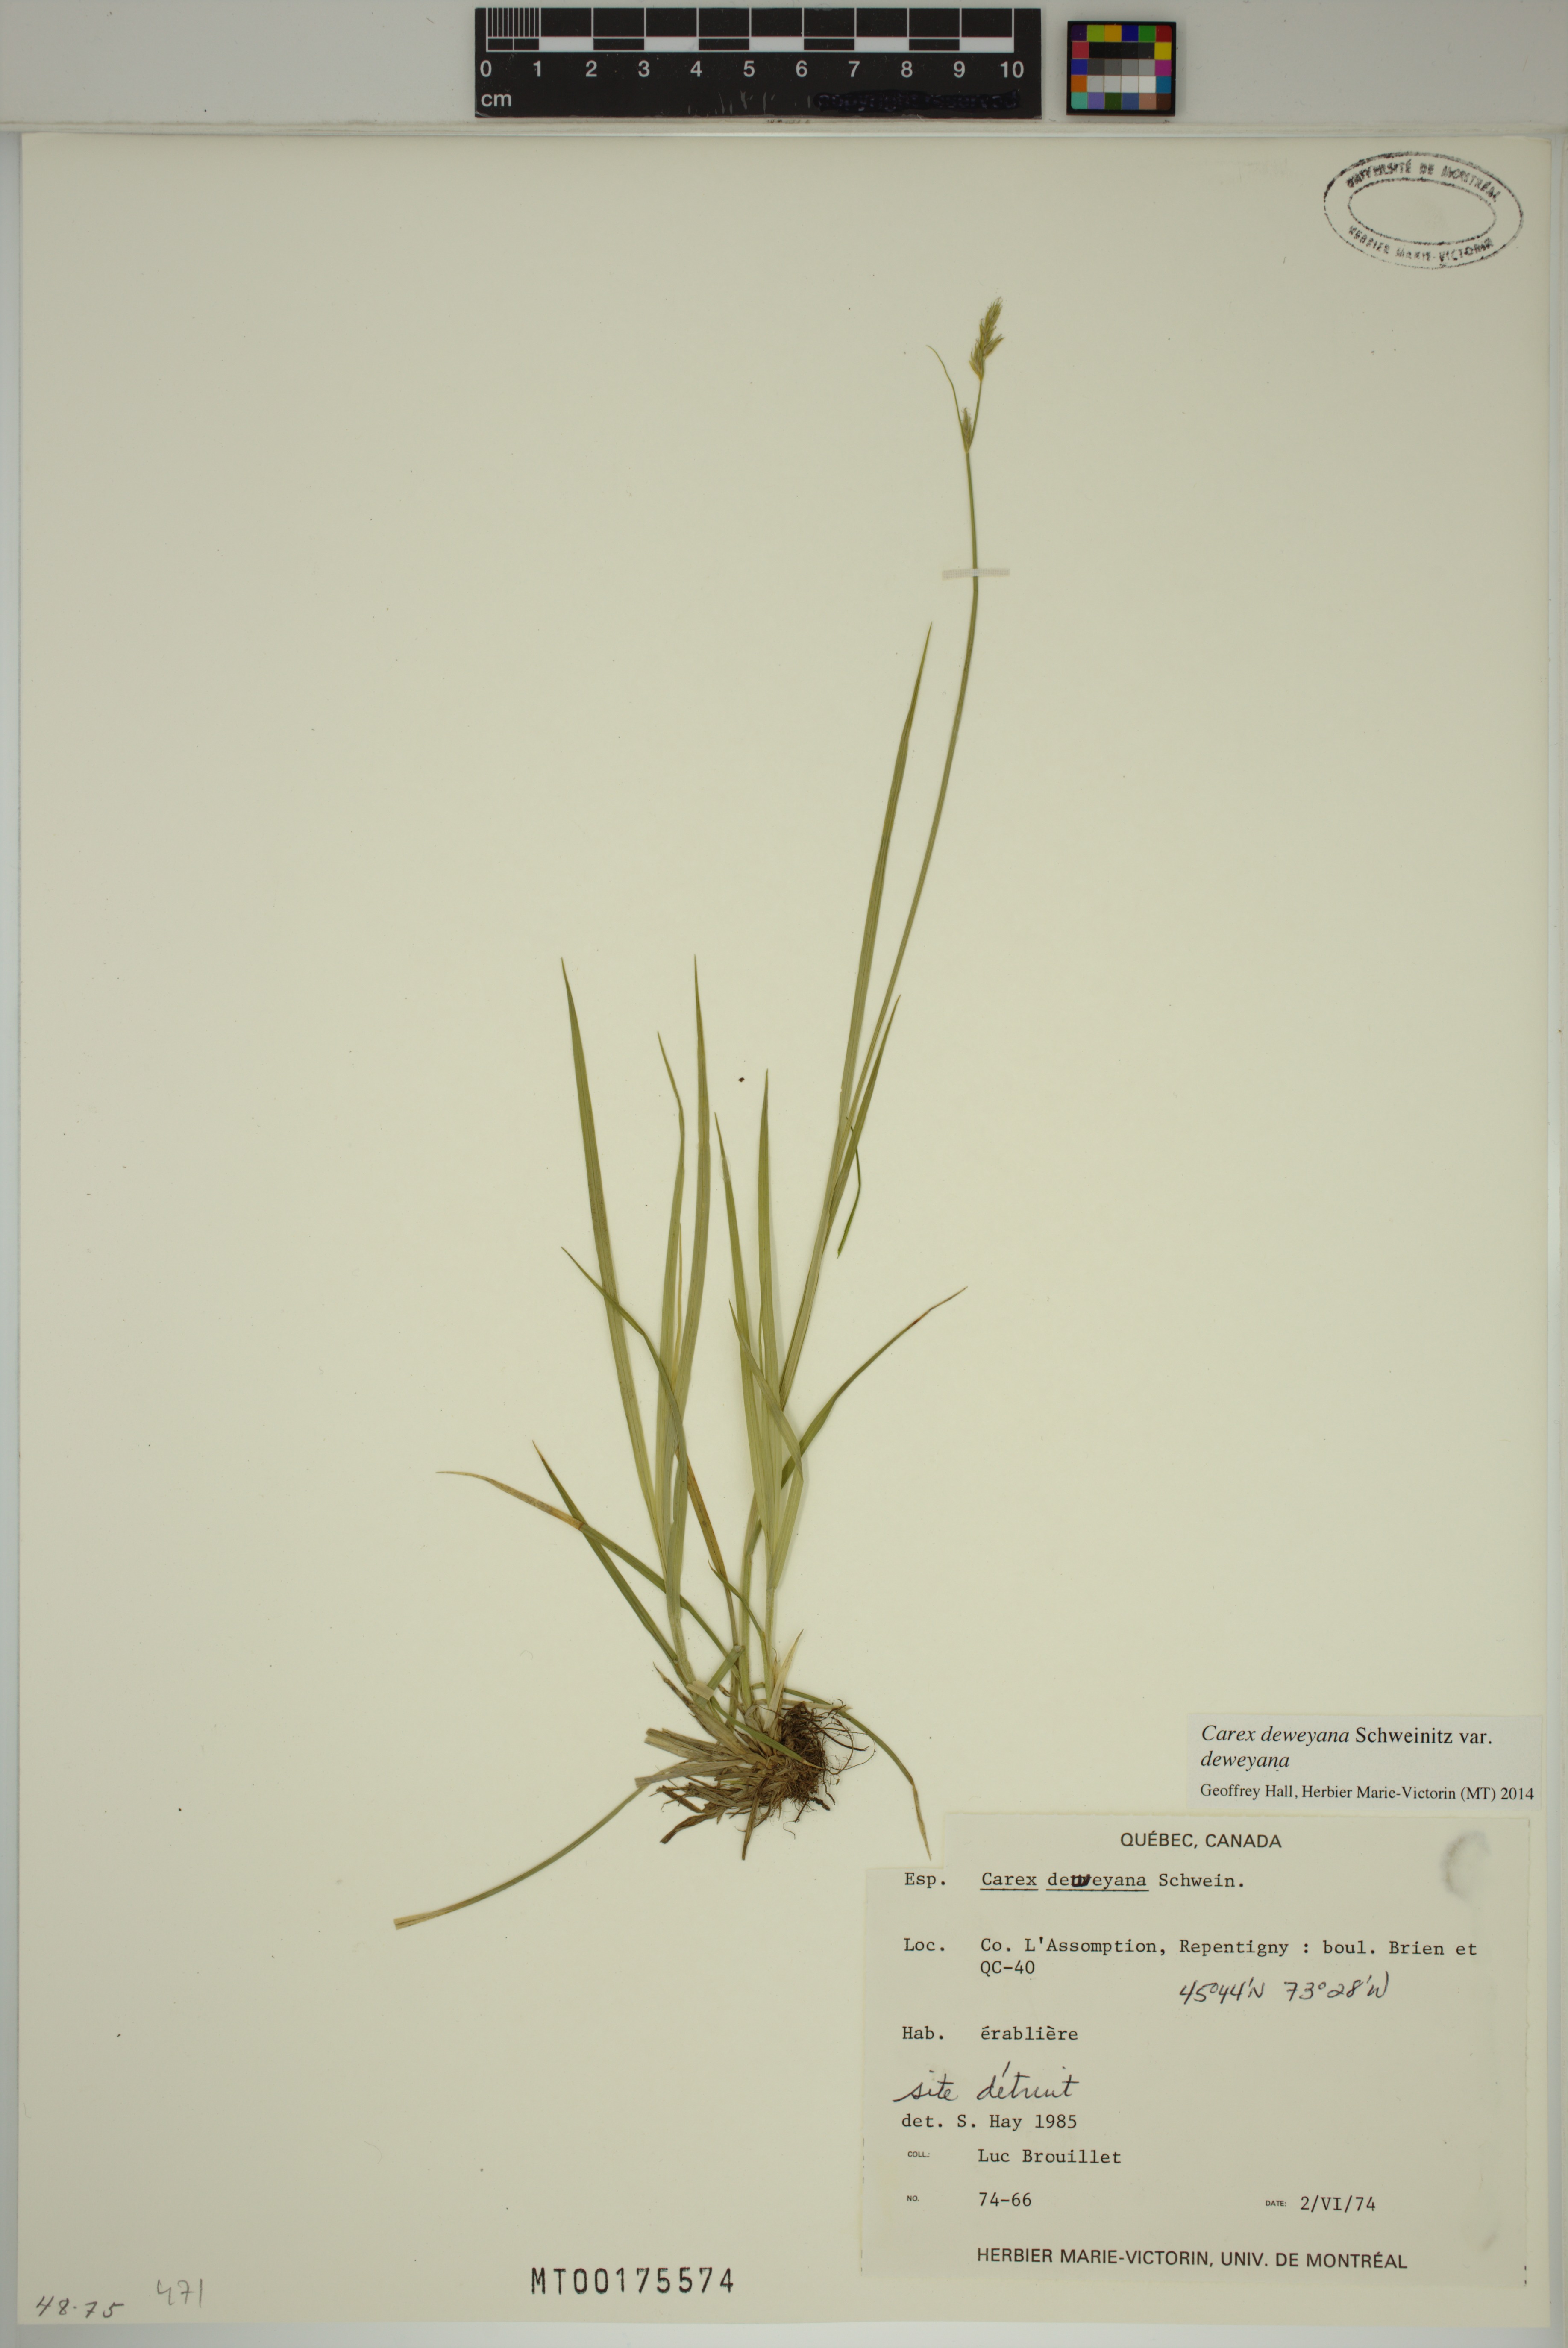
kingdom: Plantae
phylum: Tracheophyta
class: Liliopsida
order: Poales
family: Cyperaceae
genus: Carex
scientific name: Carex deweyana
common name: Dewey's sedge
